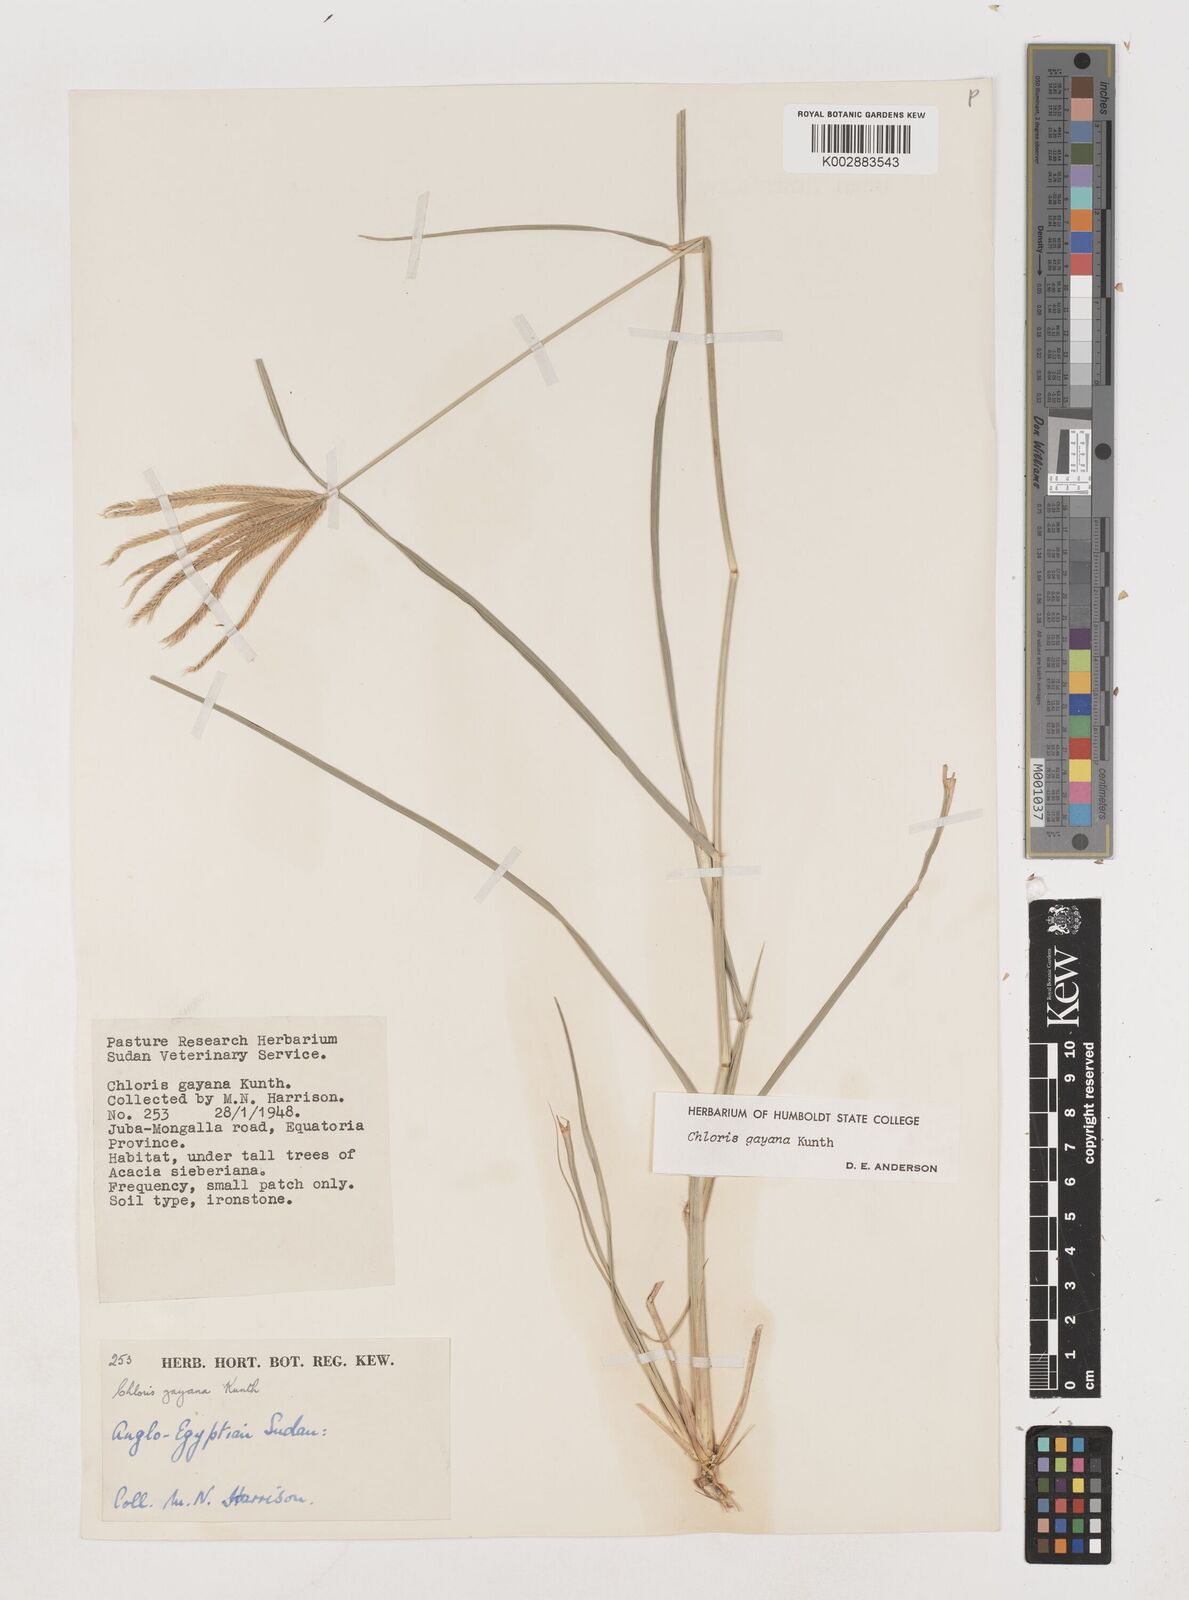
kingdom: Plantae
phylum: Tracheophyta
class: Liliopsida
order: Poales
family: Poaceae
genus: Chloris
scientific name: Chloris gayana
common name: Rhodes grass
